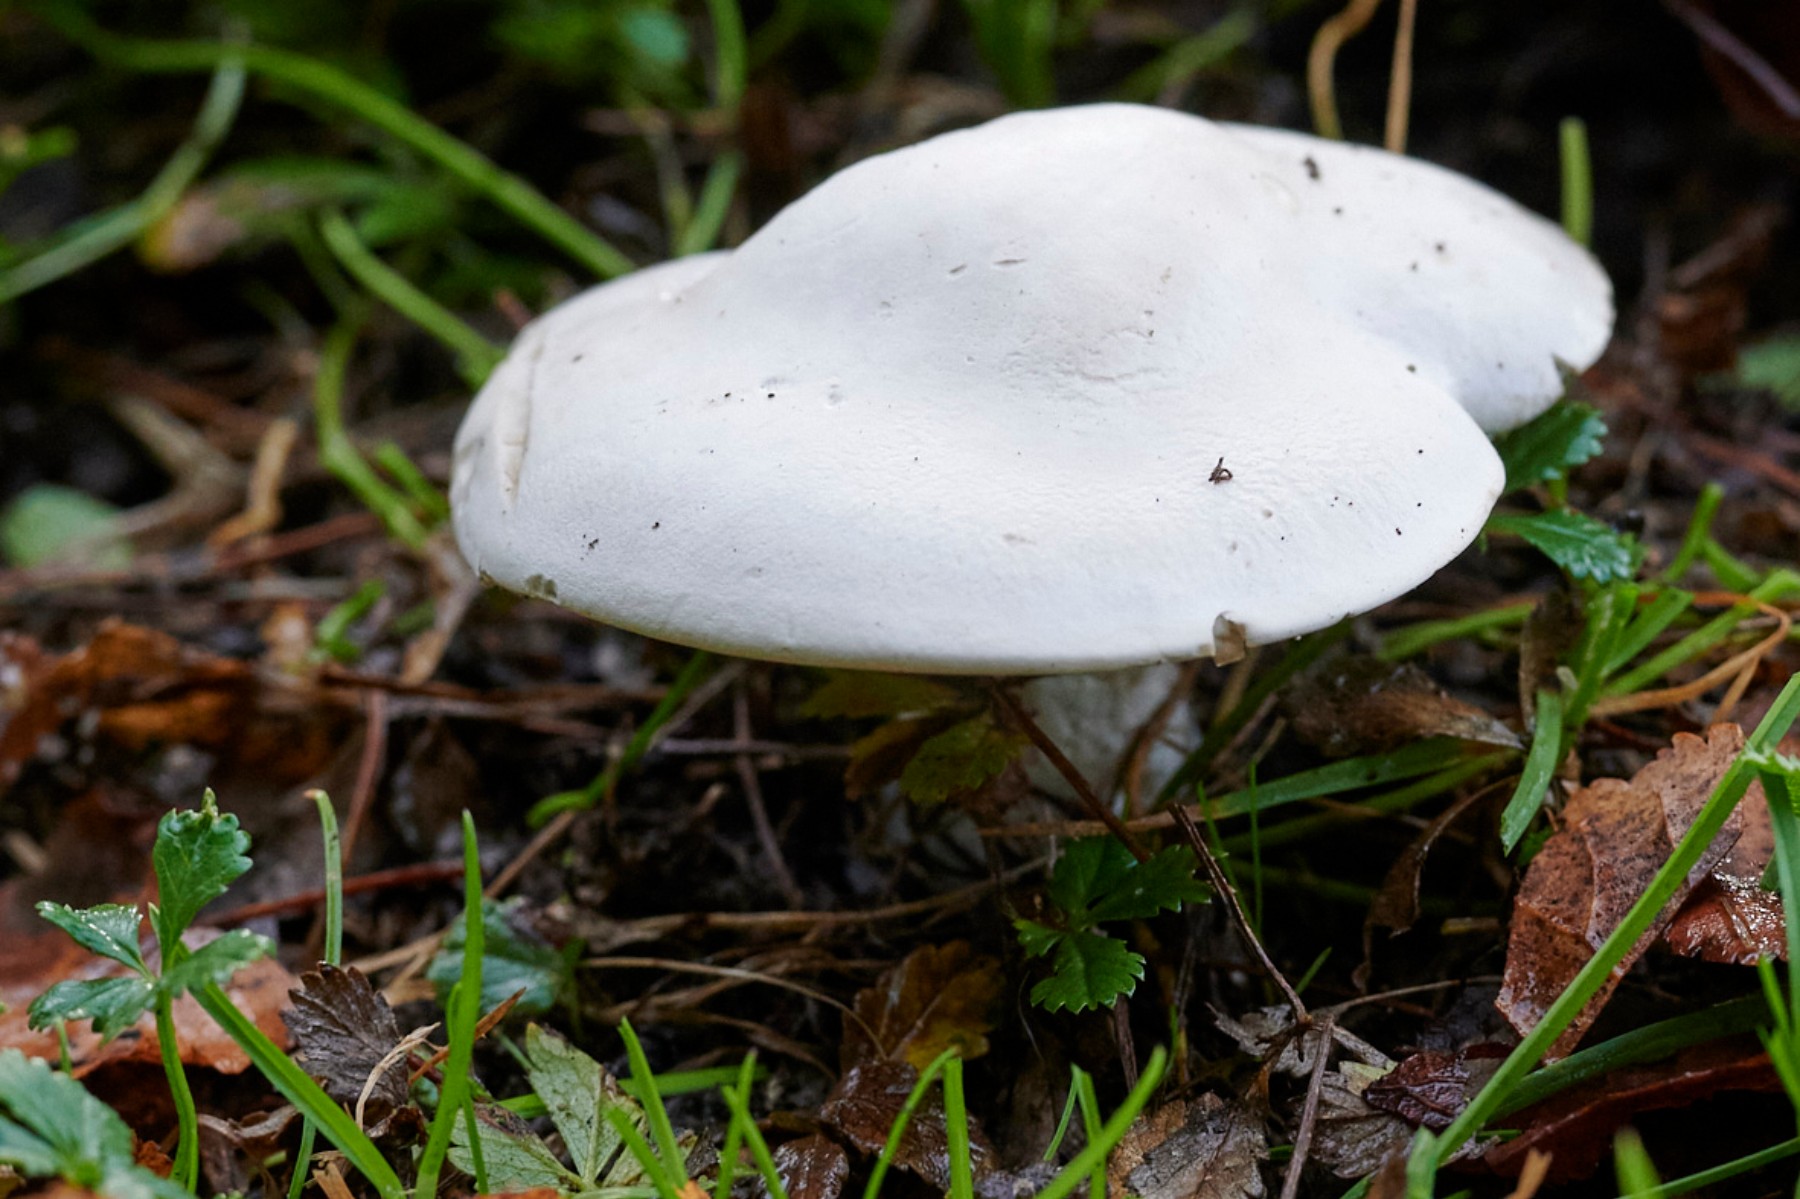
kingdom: Fungi
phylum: Basidiomycota
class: Agaricomycetes
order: Agaricales
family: Entolomataceae
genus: Clitopilus
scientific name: Clitopilus prunulus
